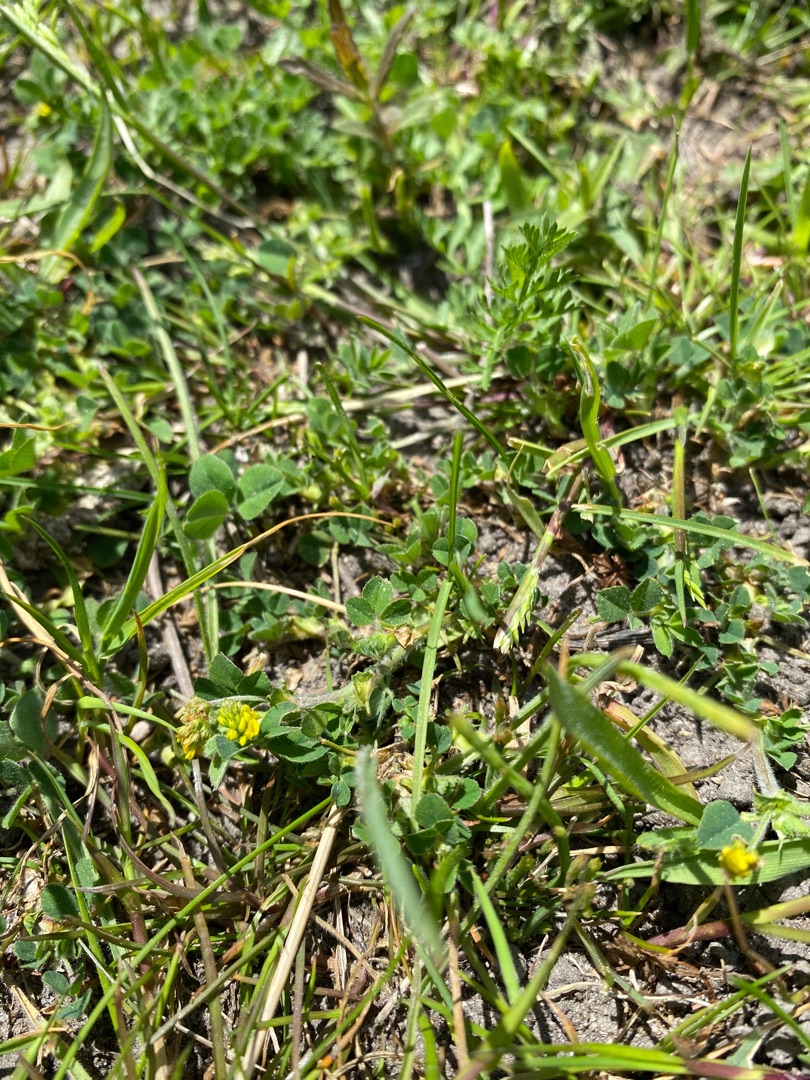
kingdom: Plantae
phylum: Tracheophyta
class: Magnoliopsida
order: Fabales
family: Fabaceae
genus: Medicago
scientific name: Medicago lupulina
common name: Humle-sneglebælg
